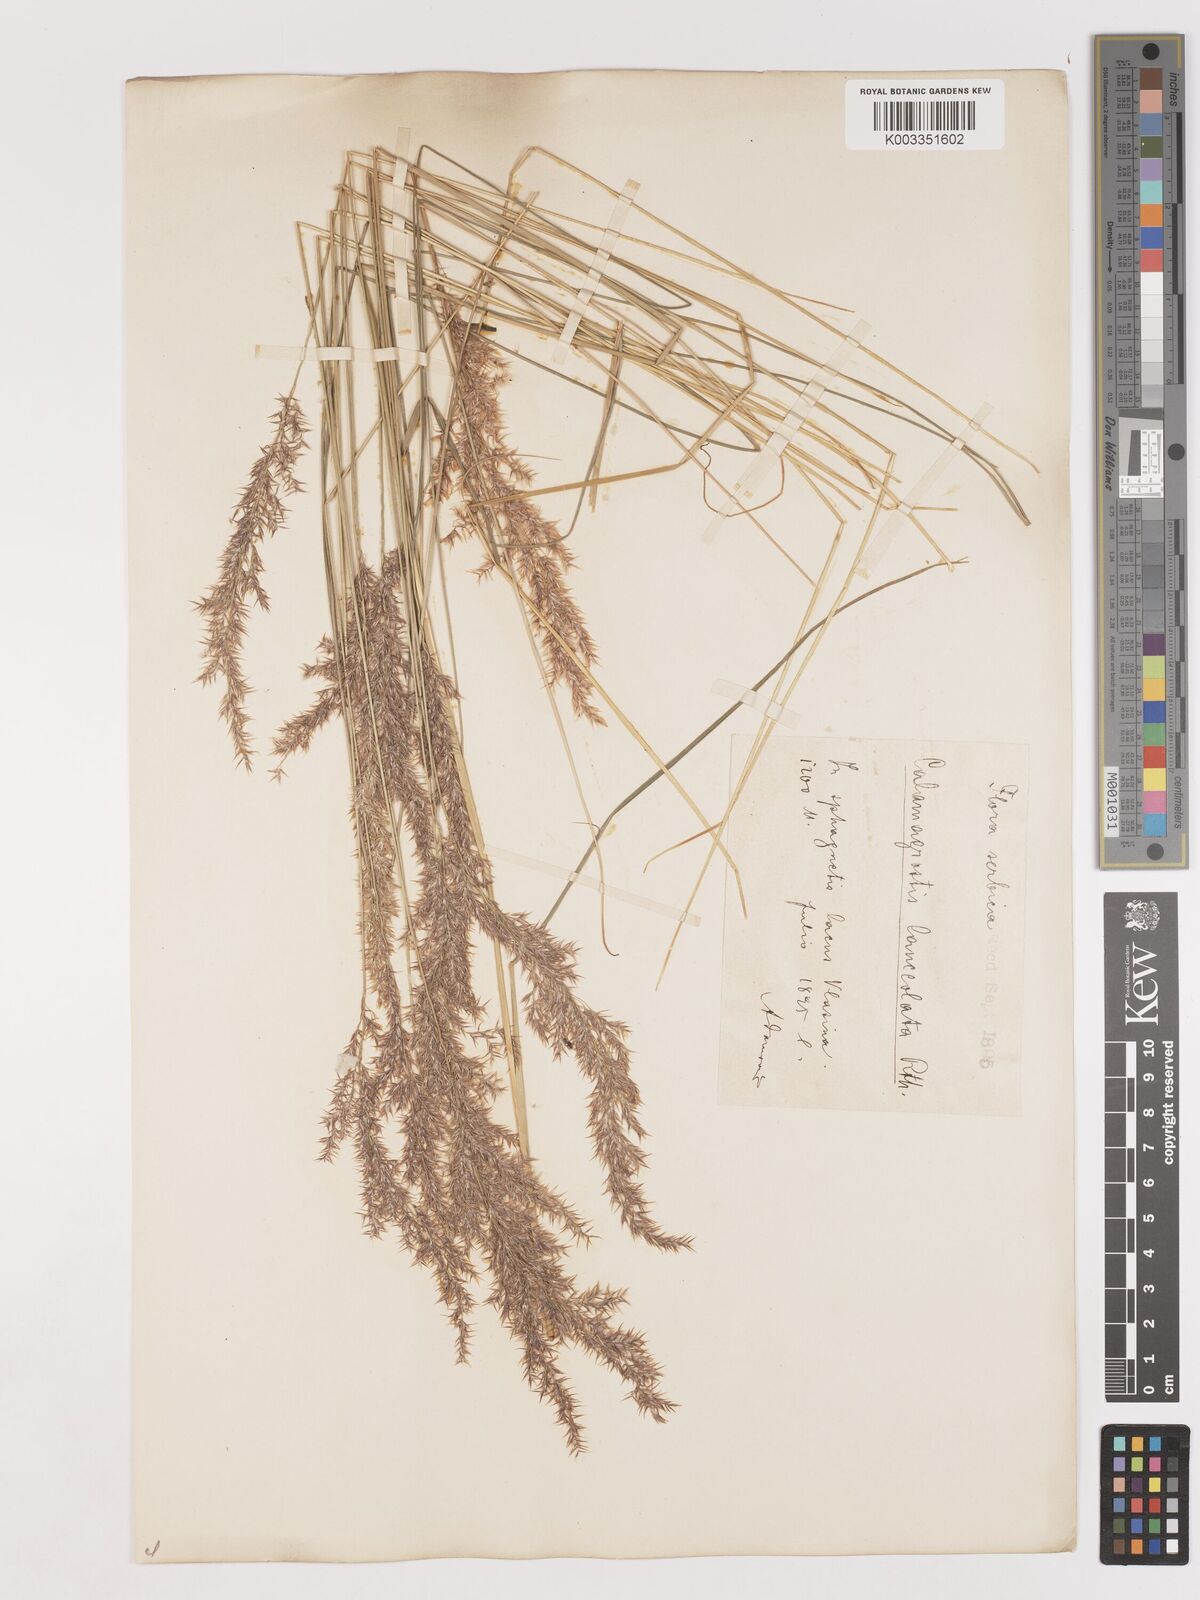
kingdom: Plantae
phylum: Tracheophyta
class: Liliopsida
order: Poales
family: Poaceae
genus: Calamagrostis
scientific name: Calamagrostis canescens
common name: Purple small-reed
